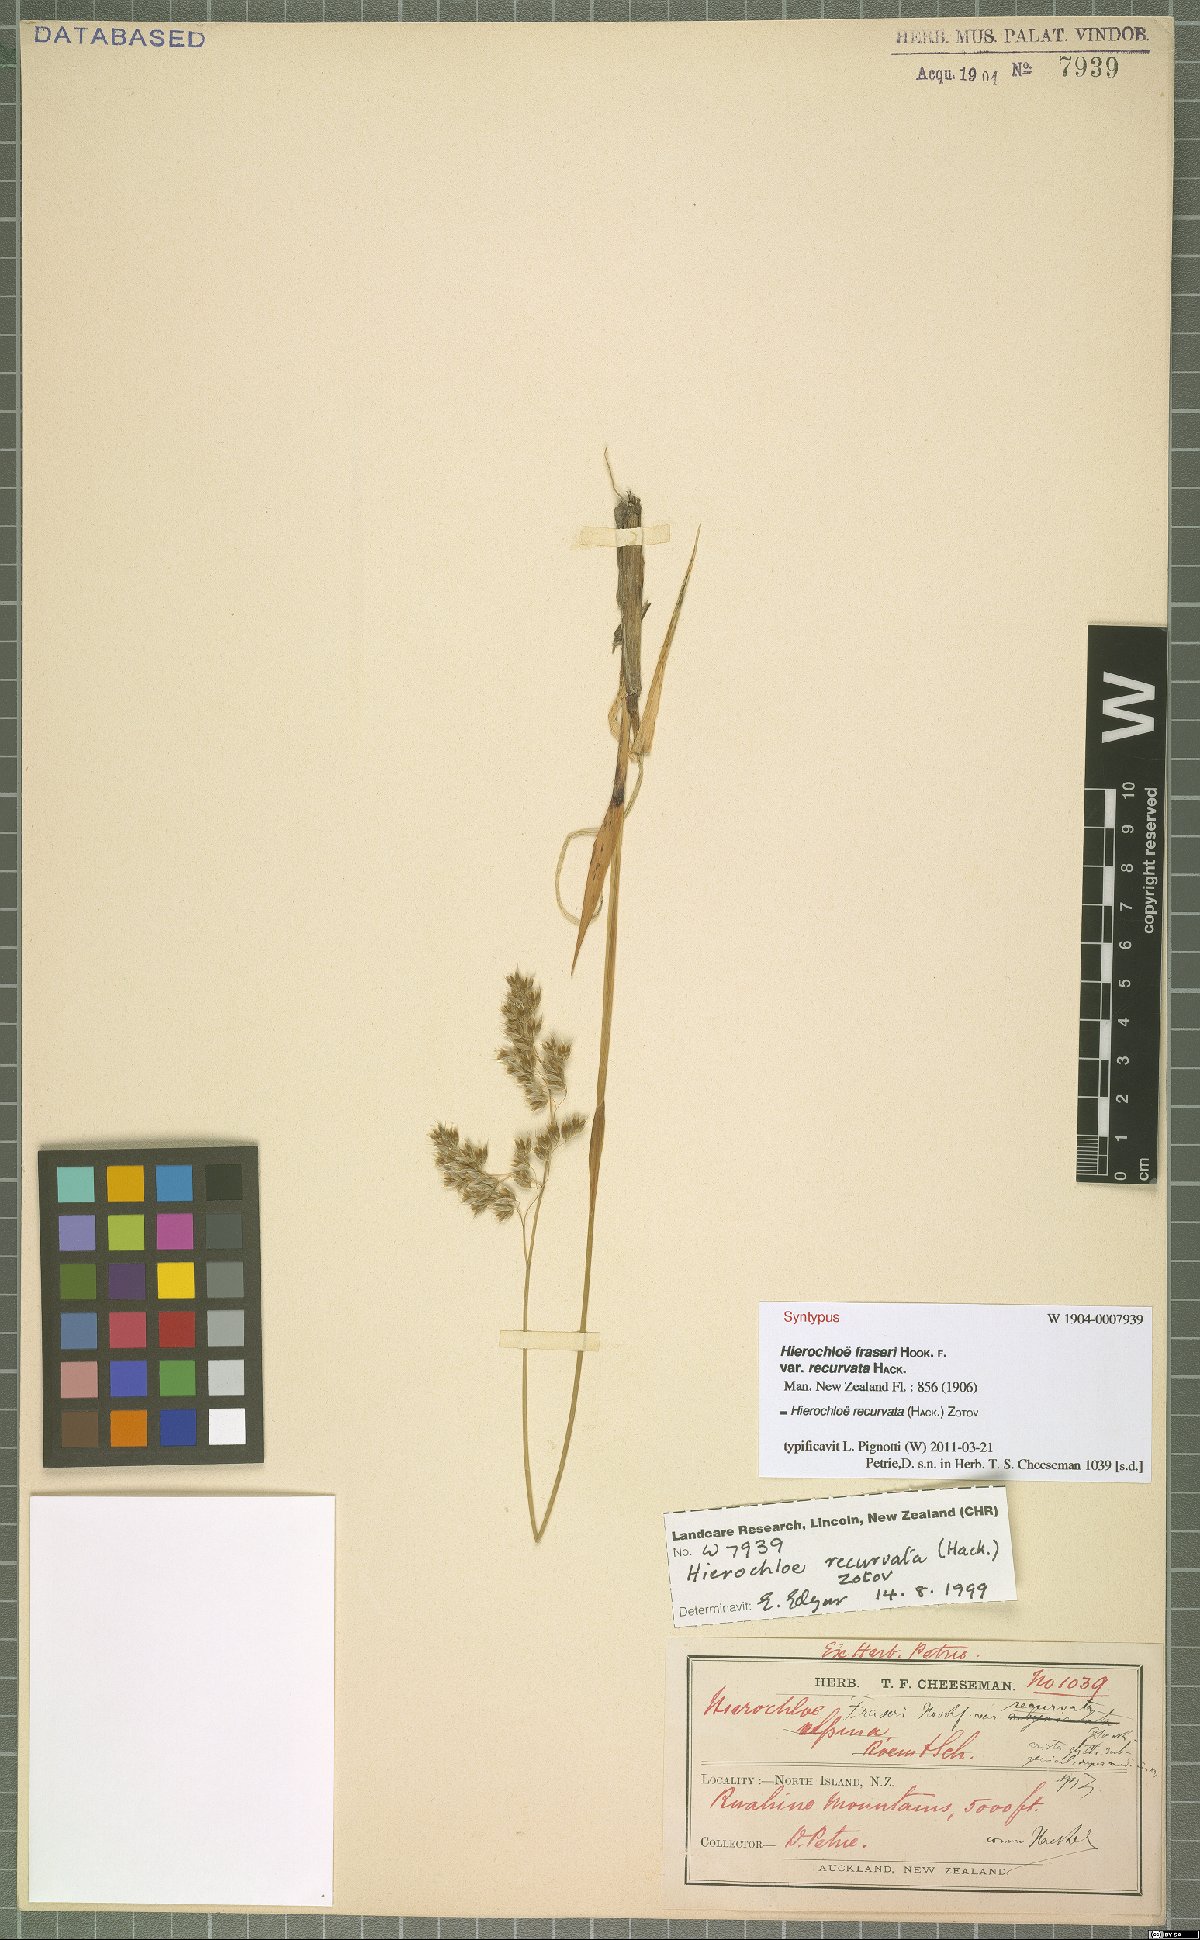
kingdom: Plantae
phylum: Tracheophyta
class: Liliopsida
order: Poales
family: Poaceae
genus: Anthoxanthum
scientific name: Anthoxanthum recurvatum
